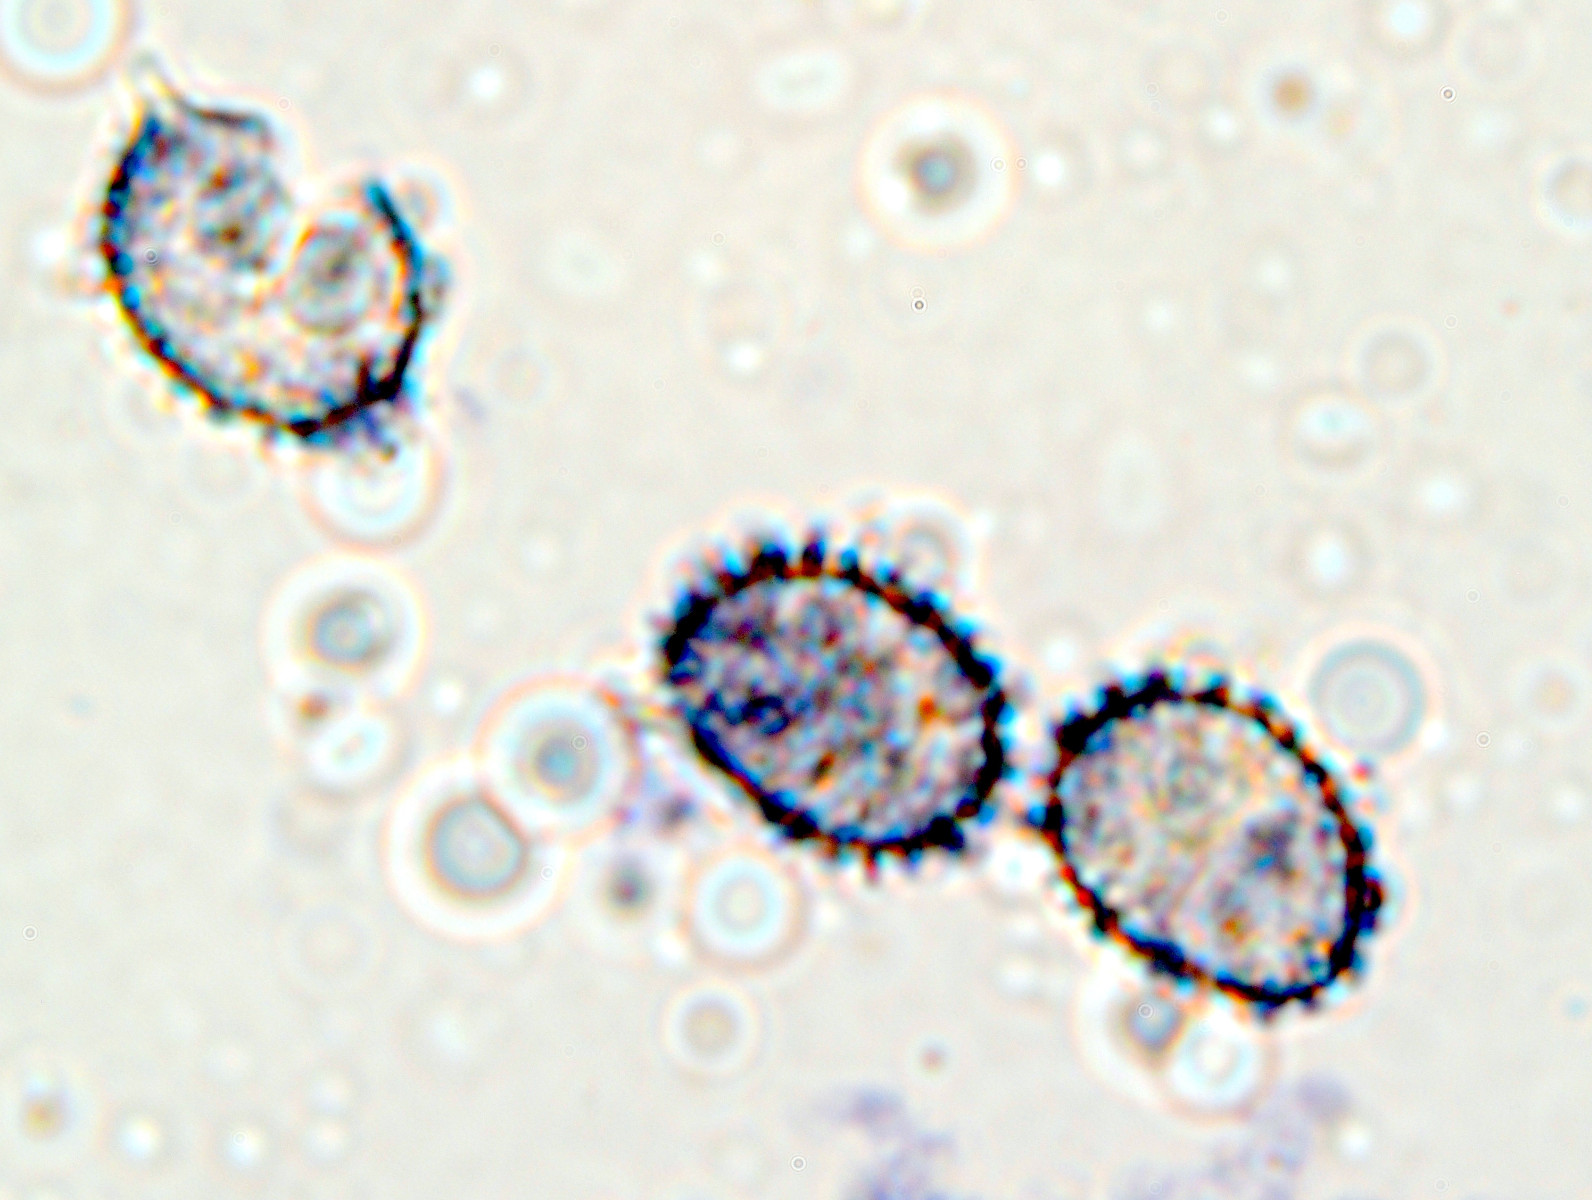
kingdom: Fungi
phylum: Basidiomycota
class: Agaricomycetes
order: Russulales
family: Russulaceae
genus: Russula
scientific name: Russula faginea
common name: bøge-skørhat
